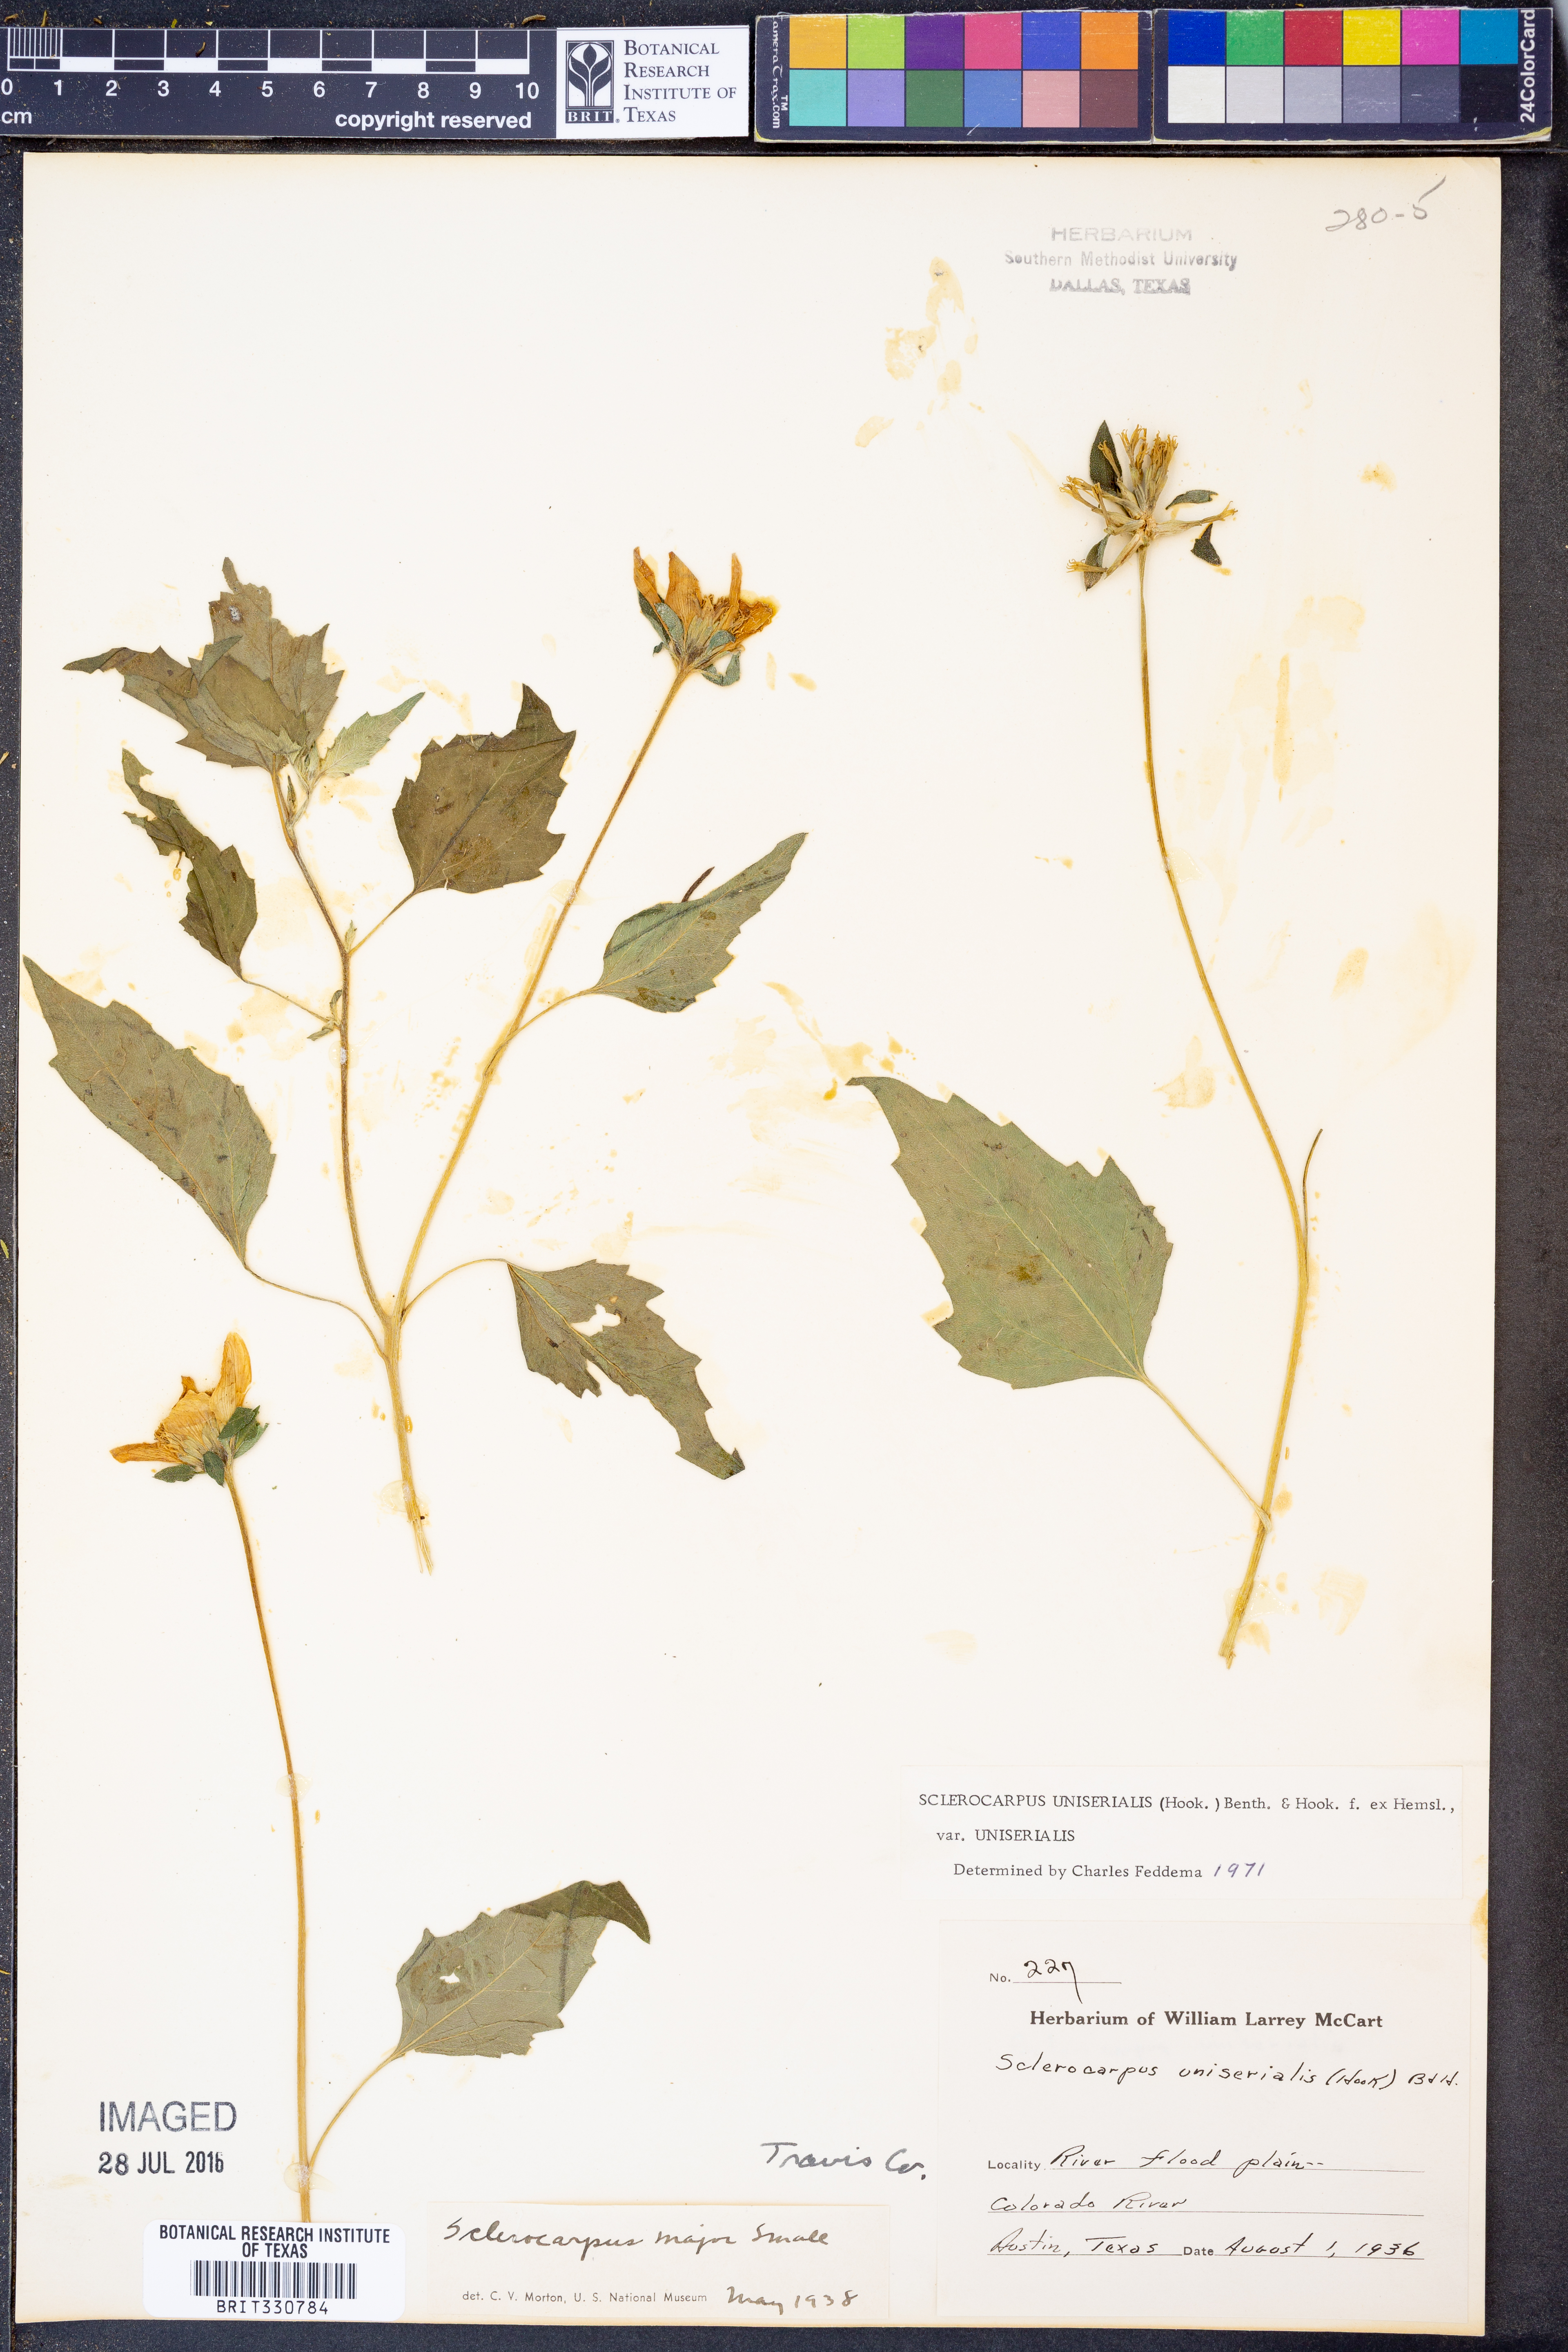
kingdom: Plantae
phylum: Tracheophyta
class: Magnoliopsida
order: Asterales
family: Asteraceae
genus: Sclerocarpus
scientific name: Sclerocarpus uniserialis
